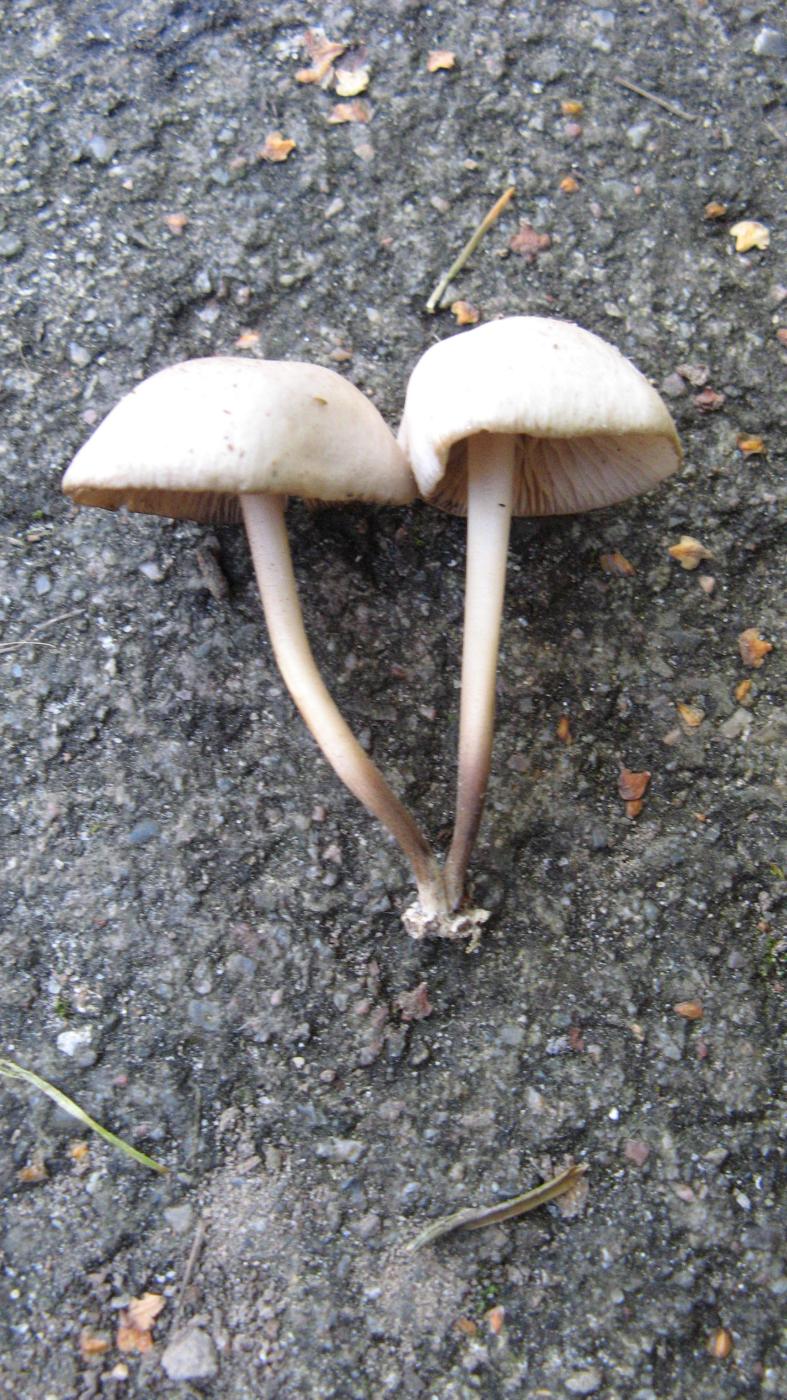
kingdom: Fungi
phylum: Basidiomycota
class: Agaricomycetes
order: Agaricales
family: Marasmiaceae
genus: Marasmius
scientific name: Marasmius wynneae
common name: hvælvet bruskhat
